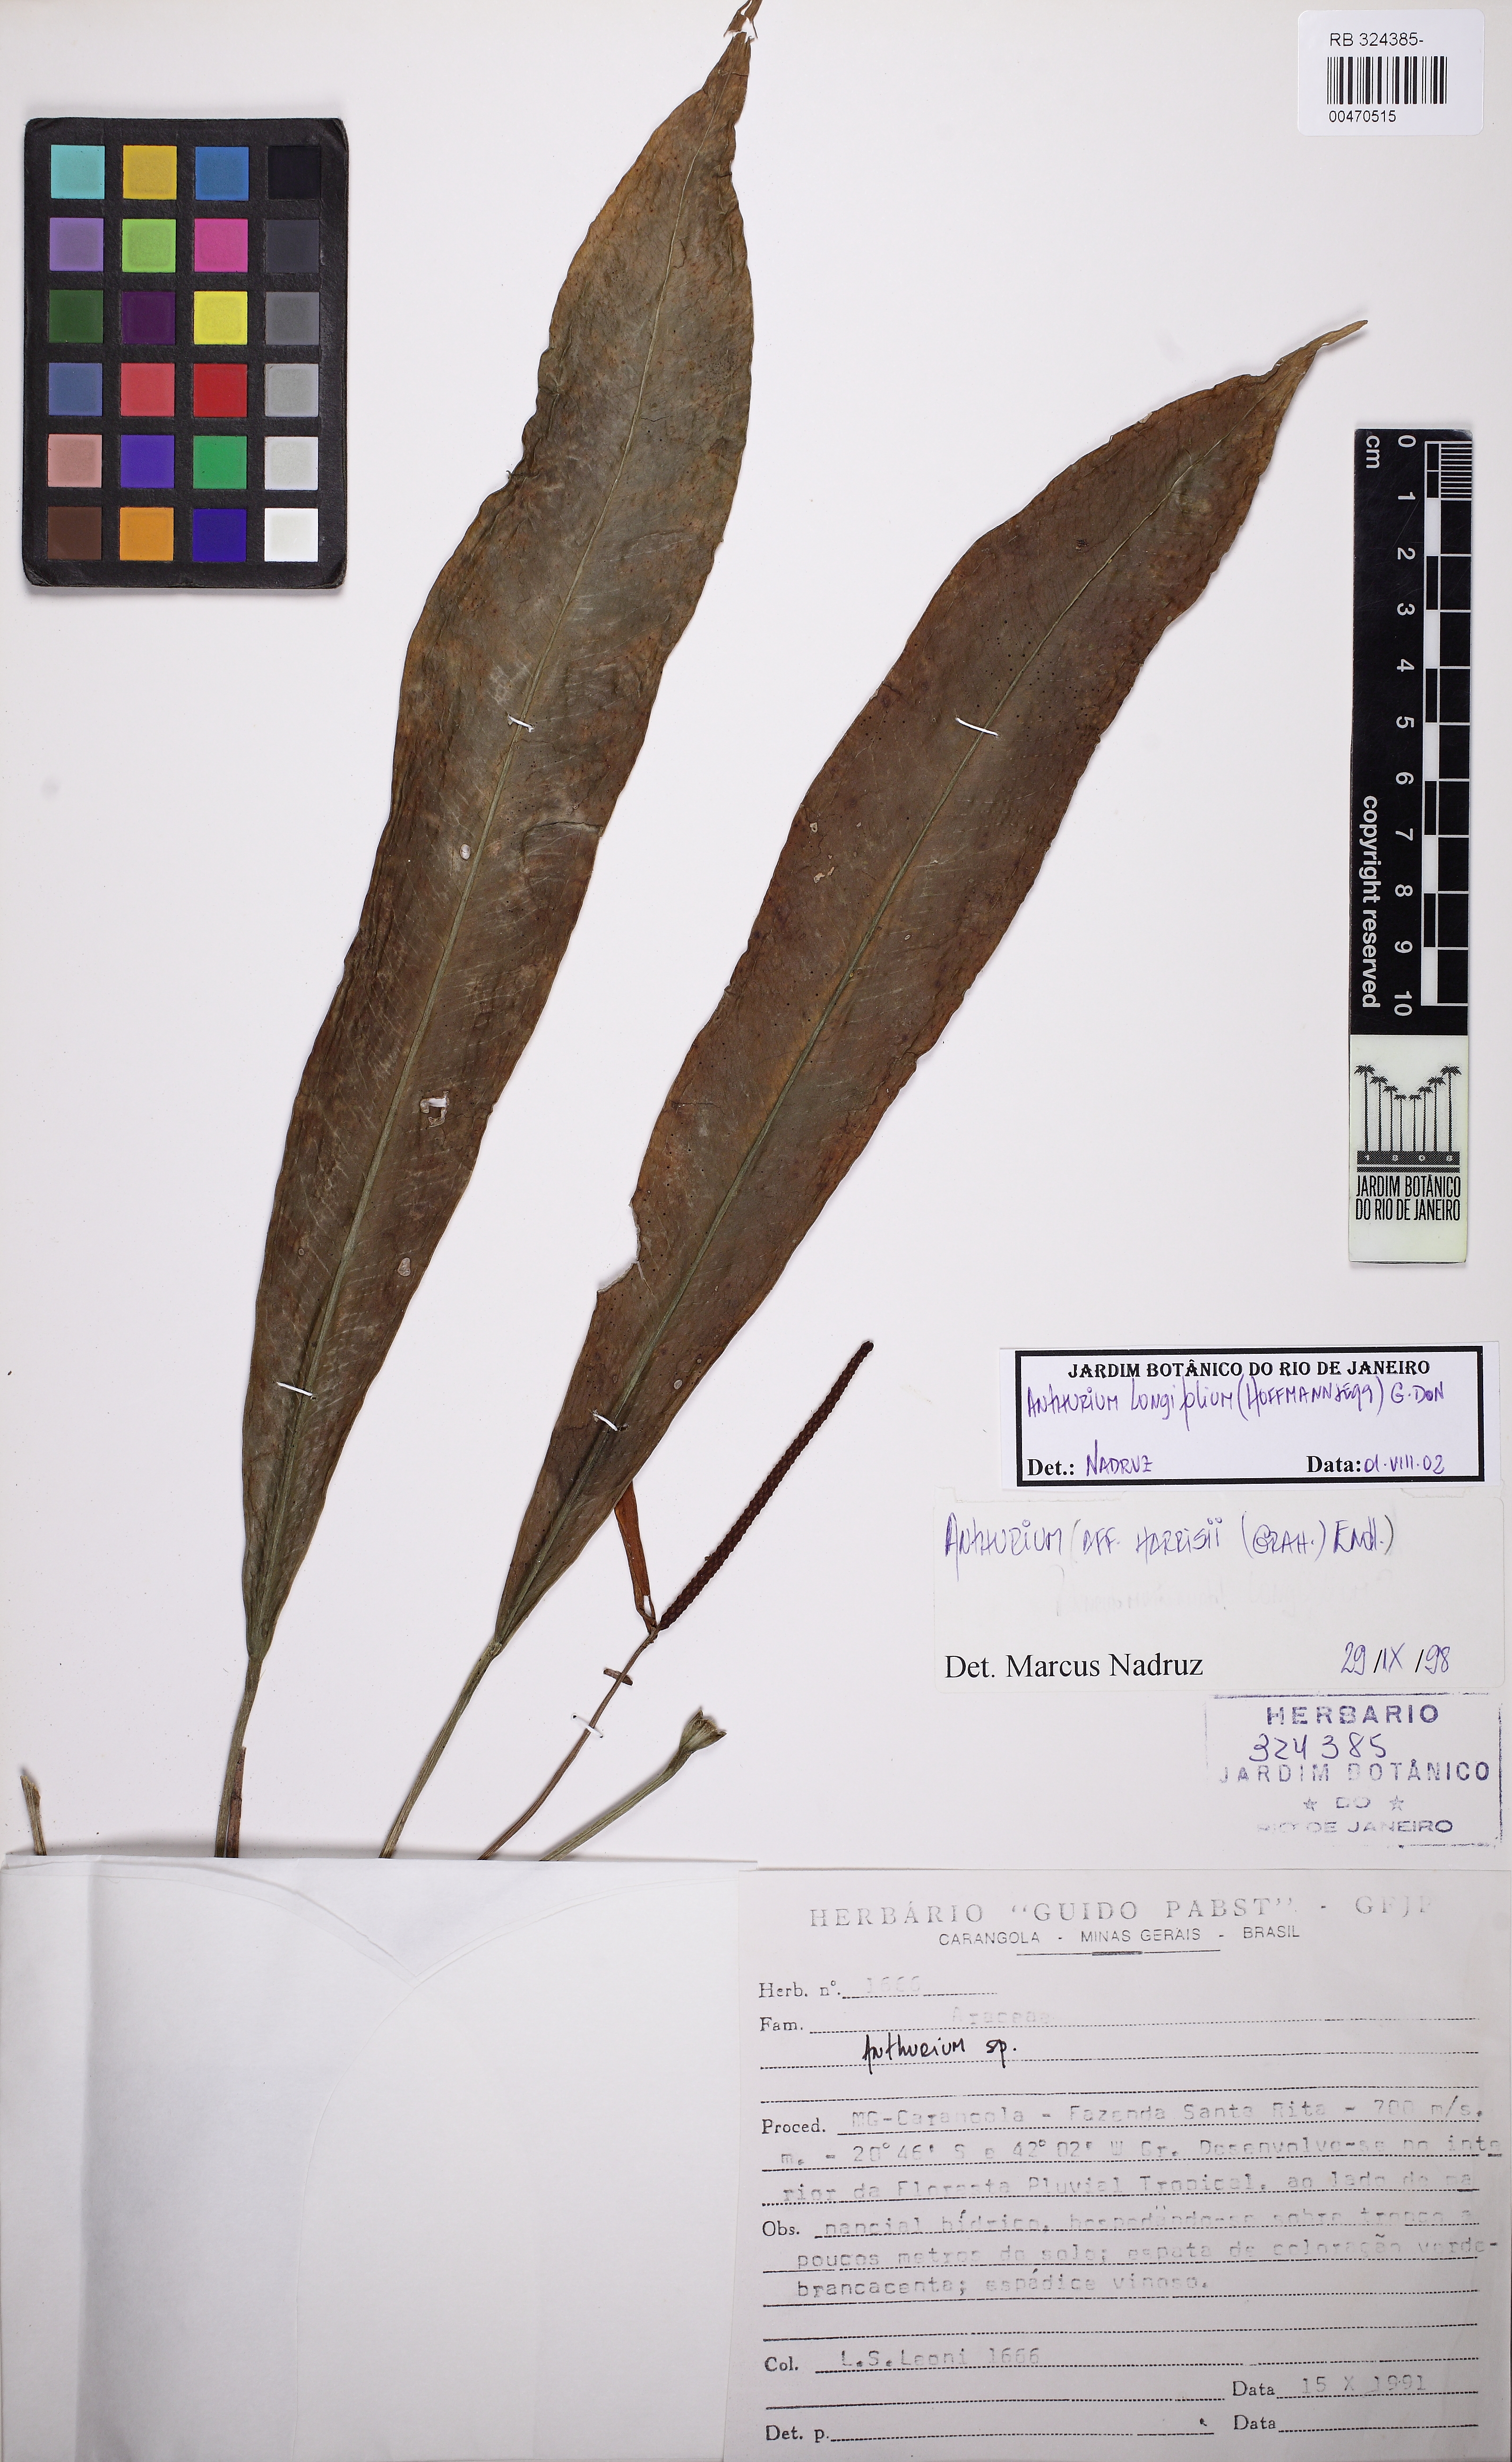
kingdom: Plantae
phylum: Tracheophyta
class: Liliopsida
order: Alismatales
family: Araceae
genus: Anthurium
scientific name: Anthurium longifolium
